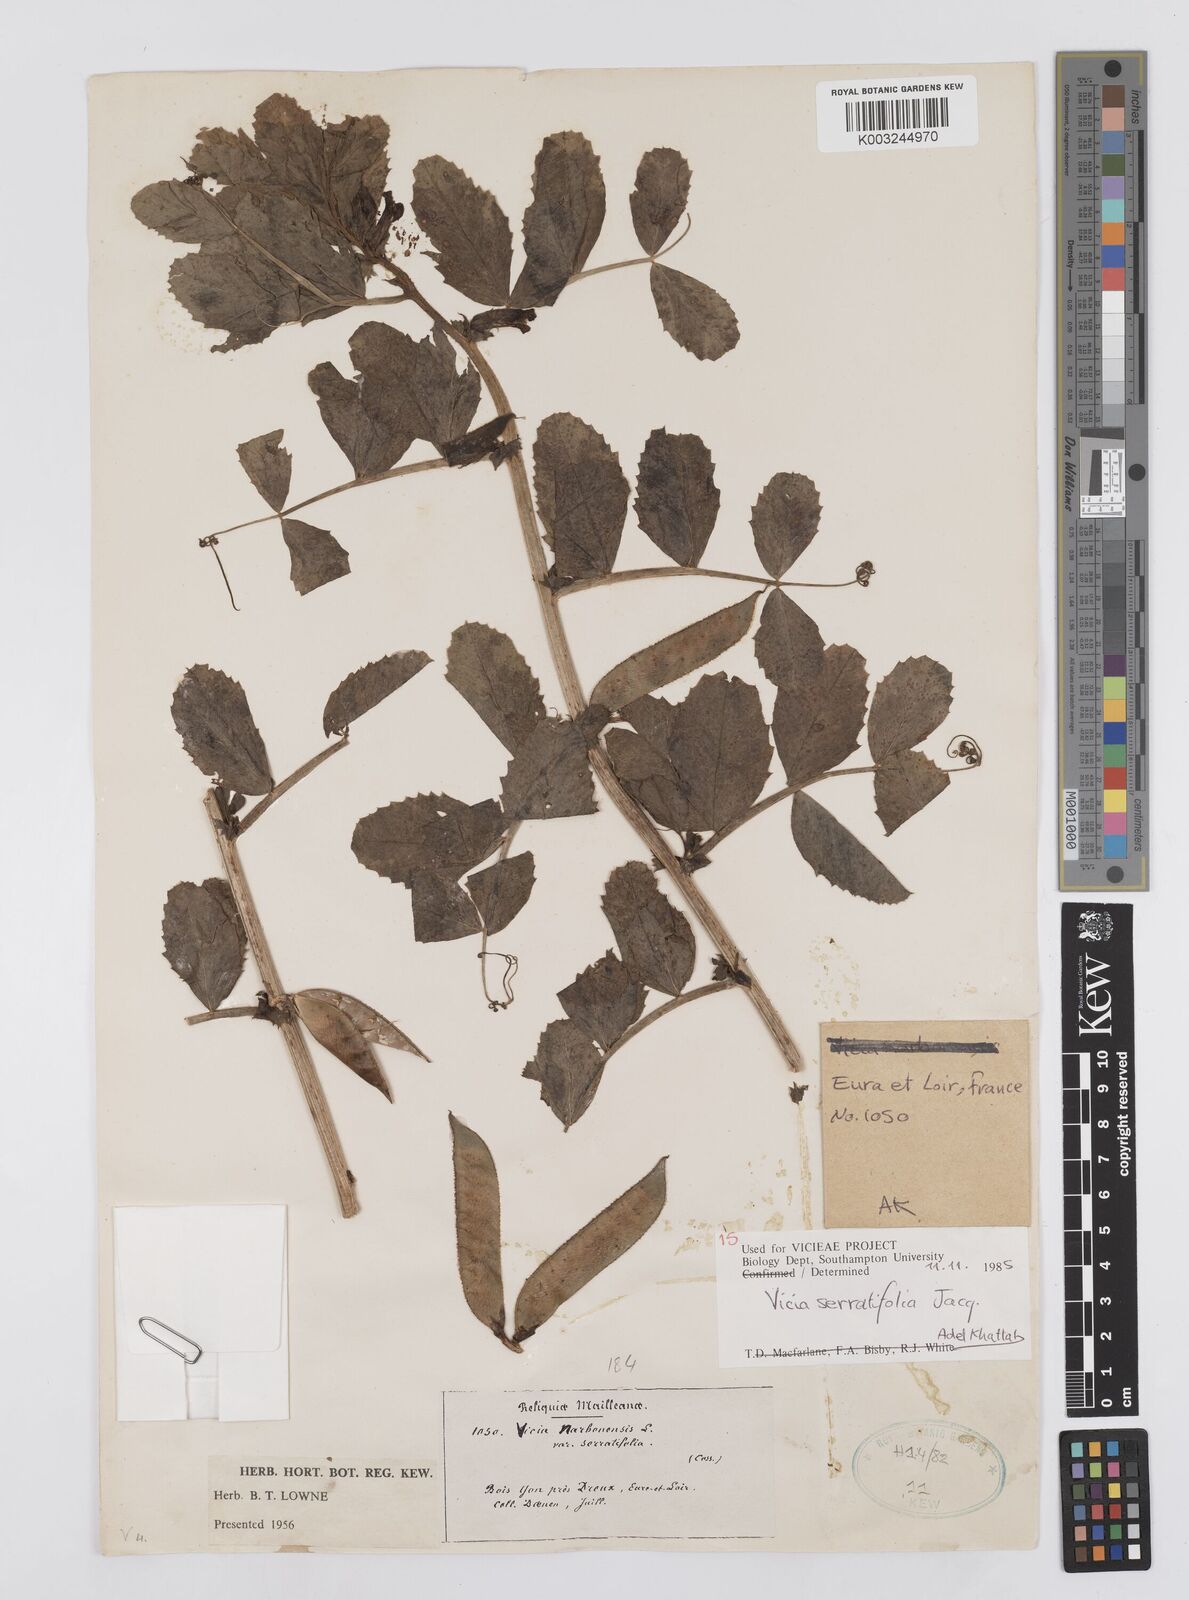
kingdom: Plantae
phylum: Tracheophyta
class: Magnoliopsida
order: Fabales
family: Fabaceae
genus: Vicia
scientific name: Vicia serratifolia
